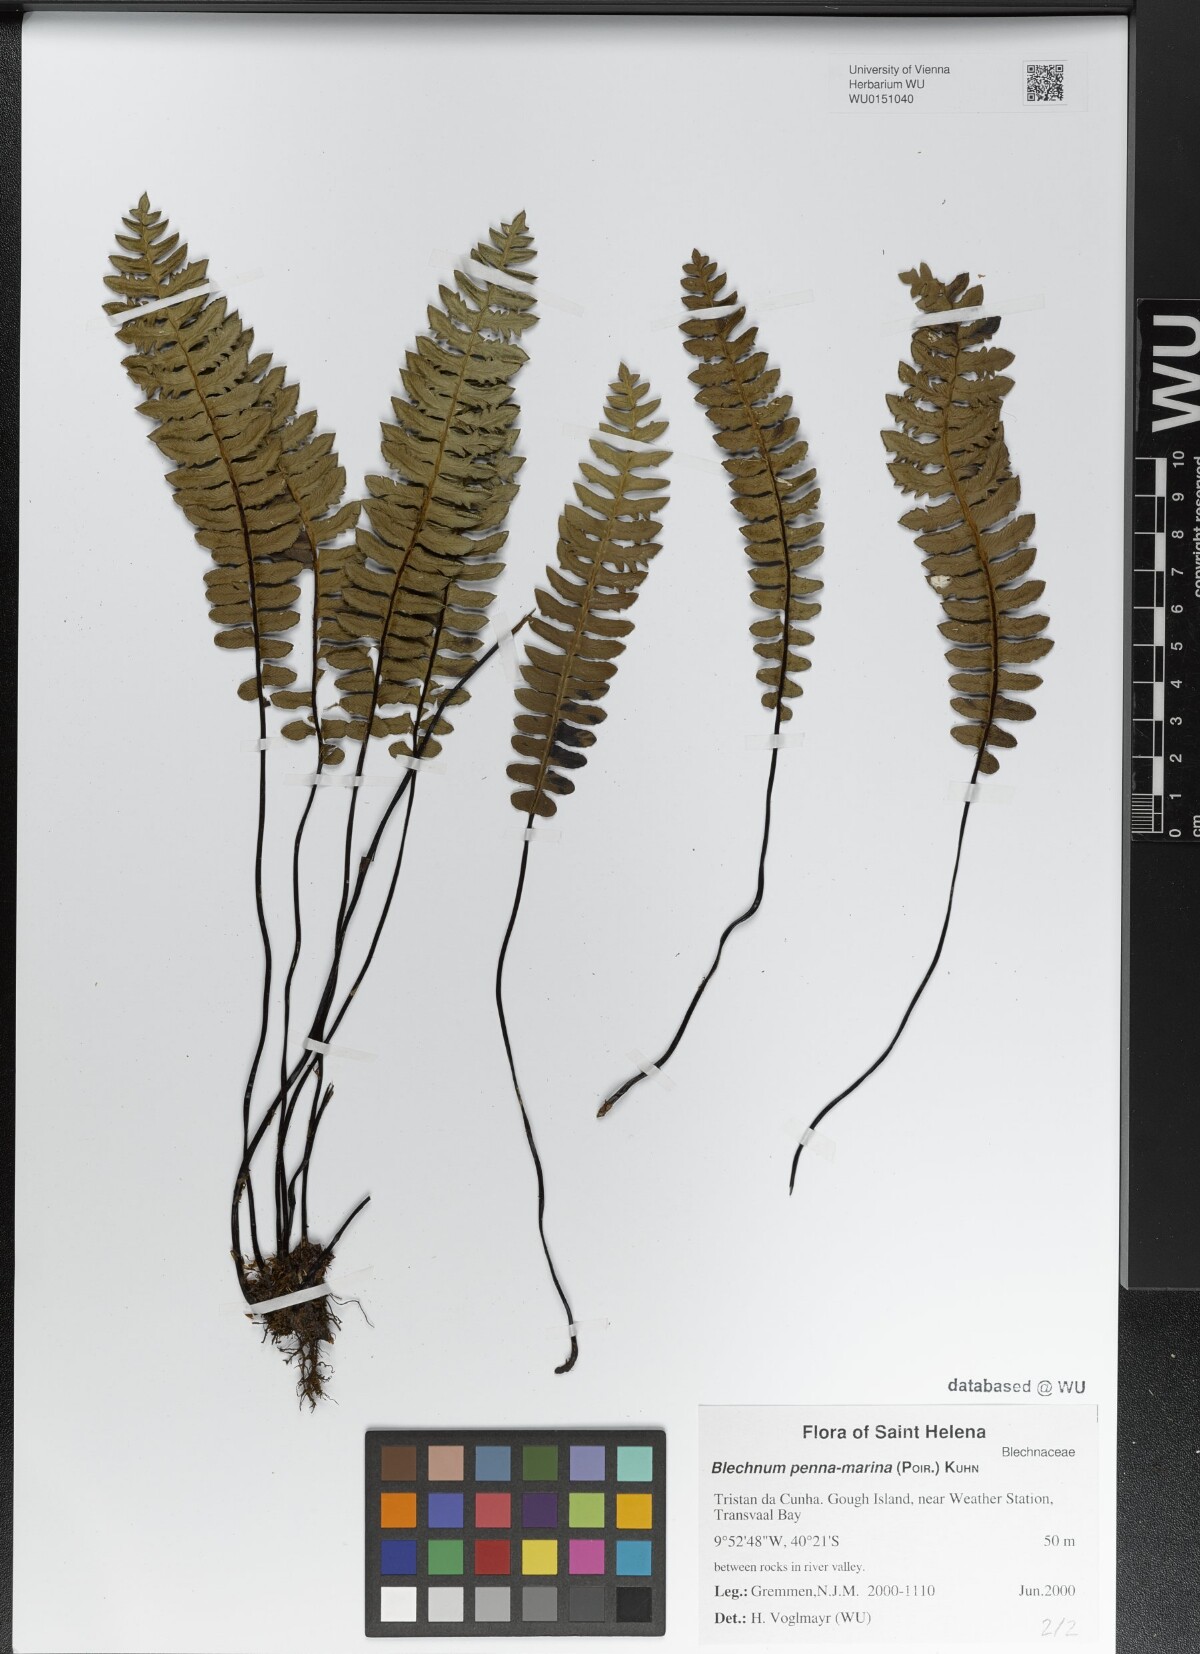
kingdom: Plantae
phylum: Tracheophyta
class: Polypodiopsida
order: Polypodiales
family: Blechnaceae
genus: Austroblechnum
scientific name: Austroblechnum penna-marina
